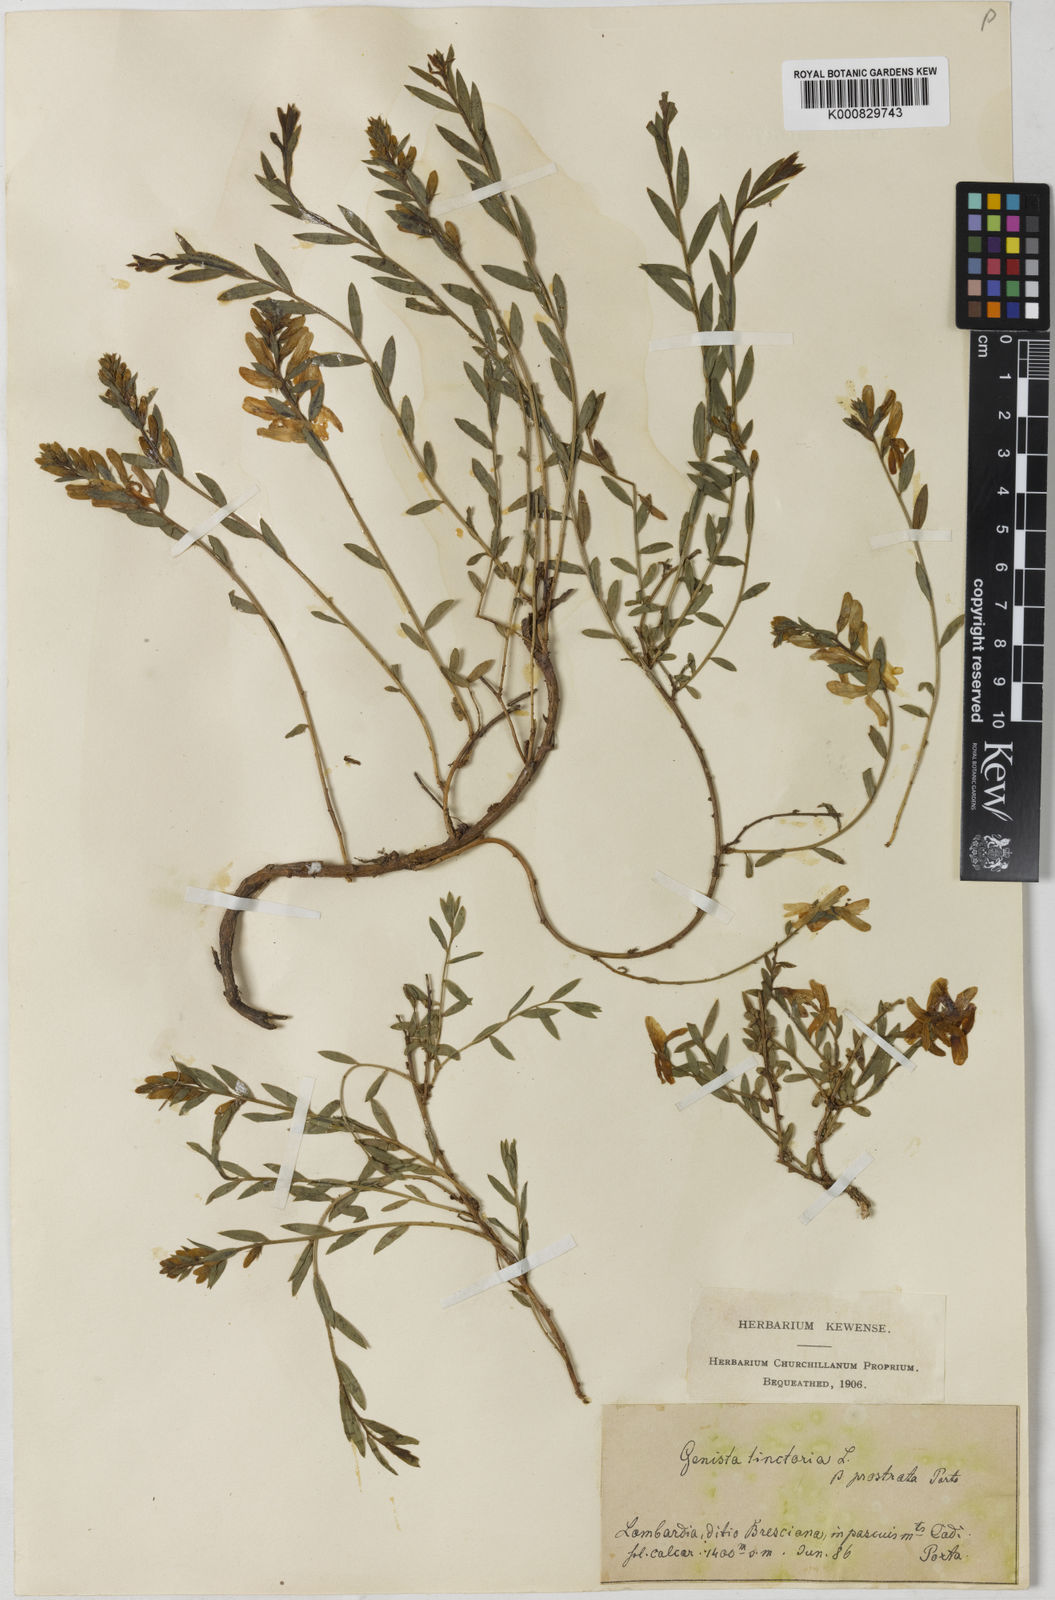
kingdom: Plantae
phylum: Tracheophyta
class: Magnoliopsida
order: Fabales
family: Fabaceae
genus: Genista
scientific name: Genista tinctoria
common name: Dyer's greenweed
